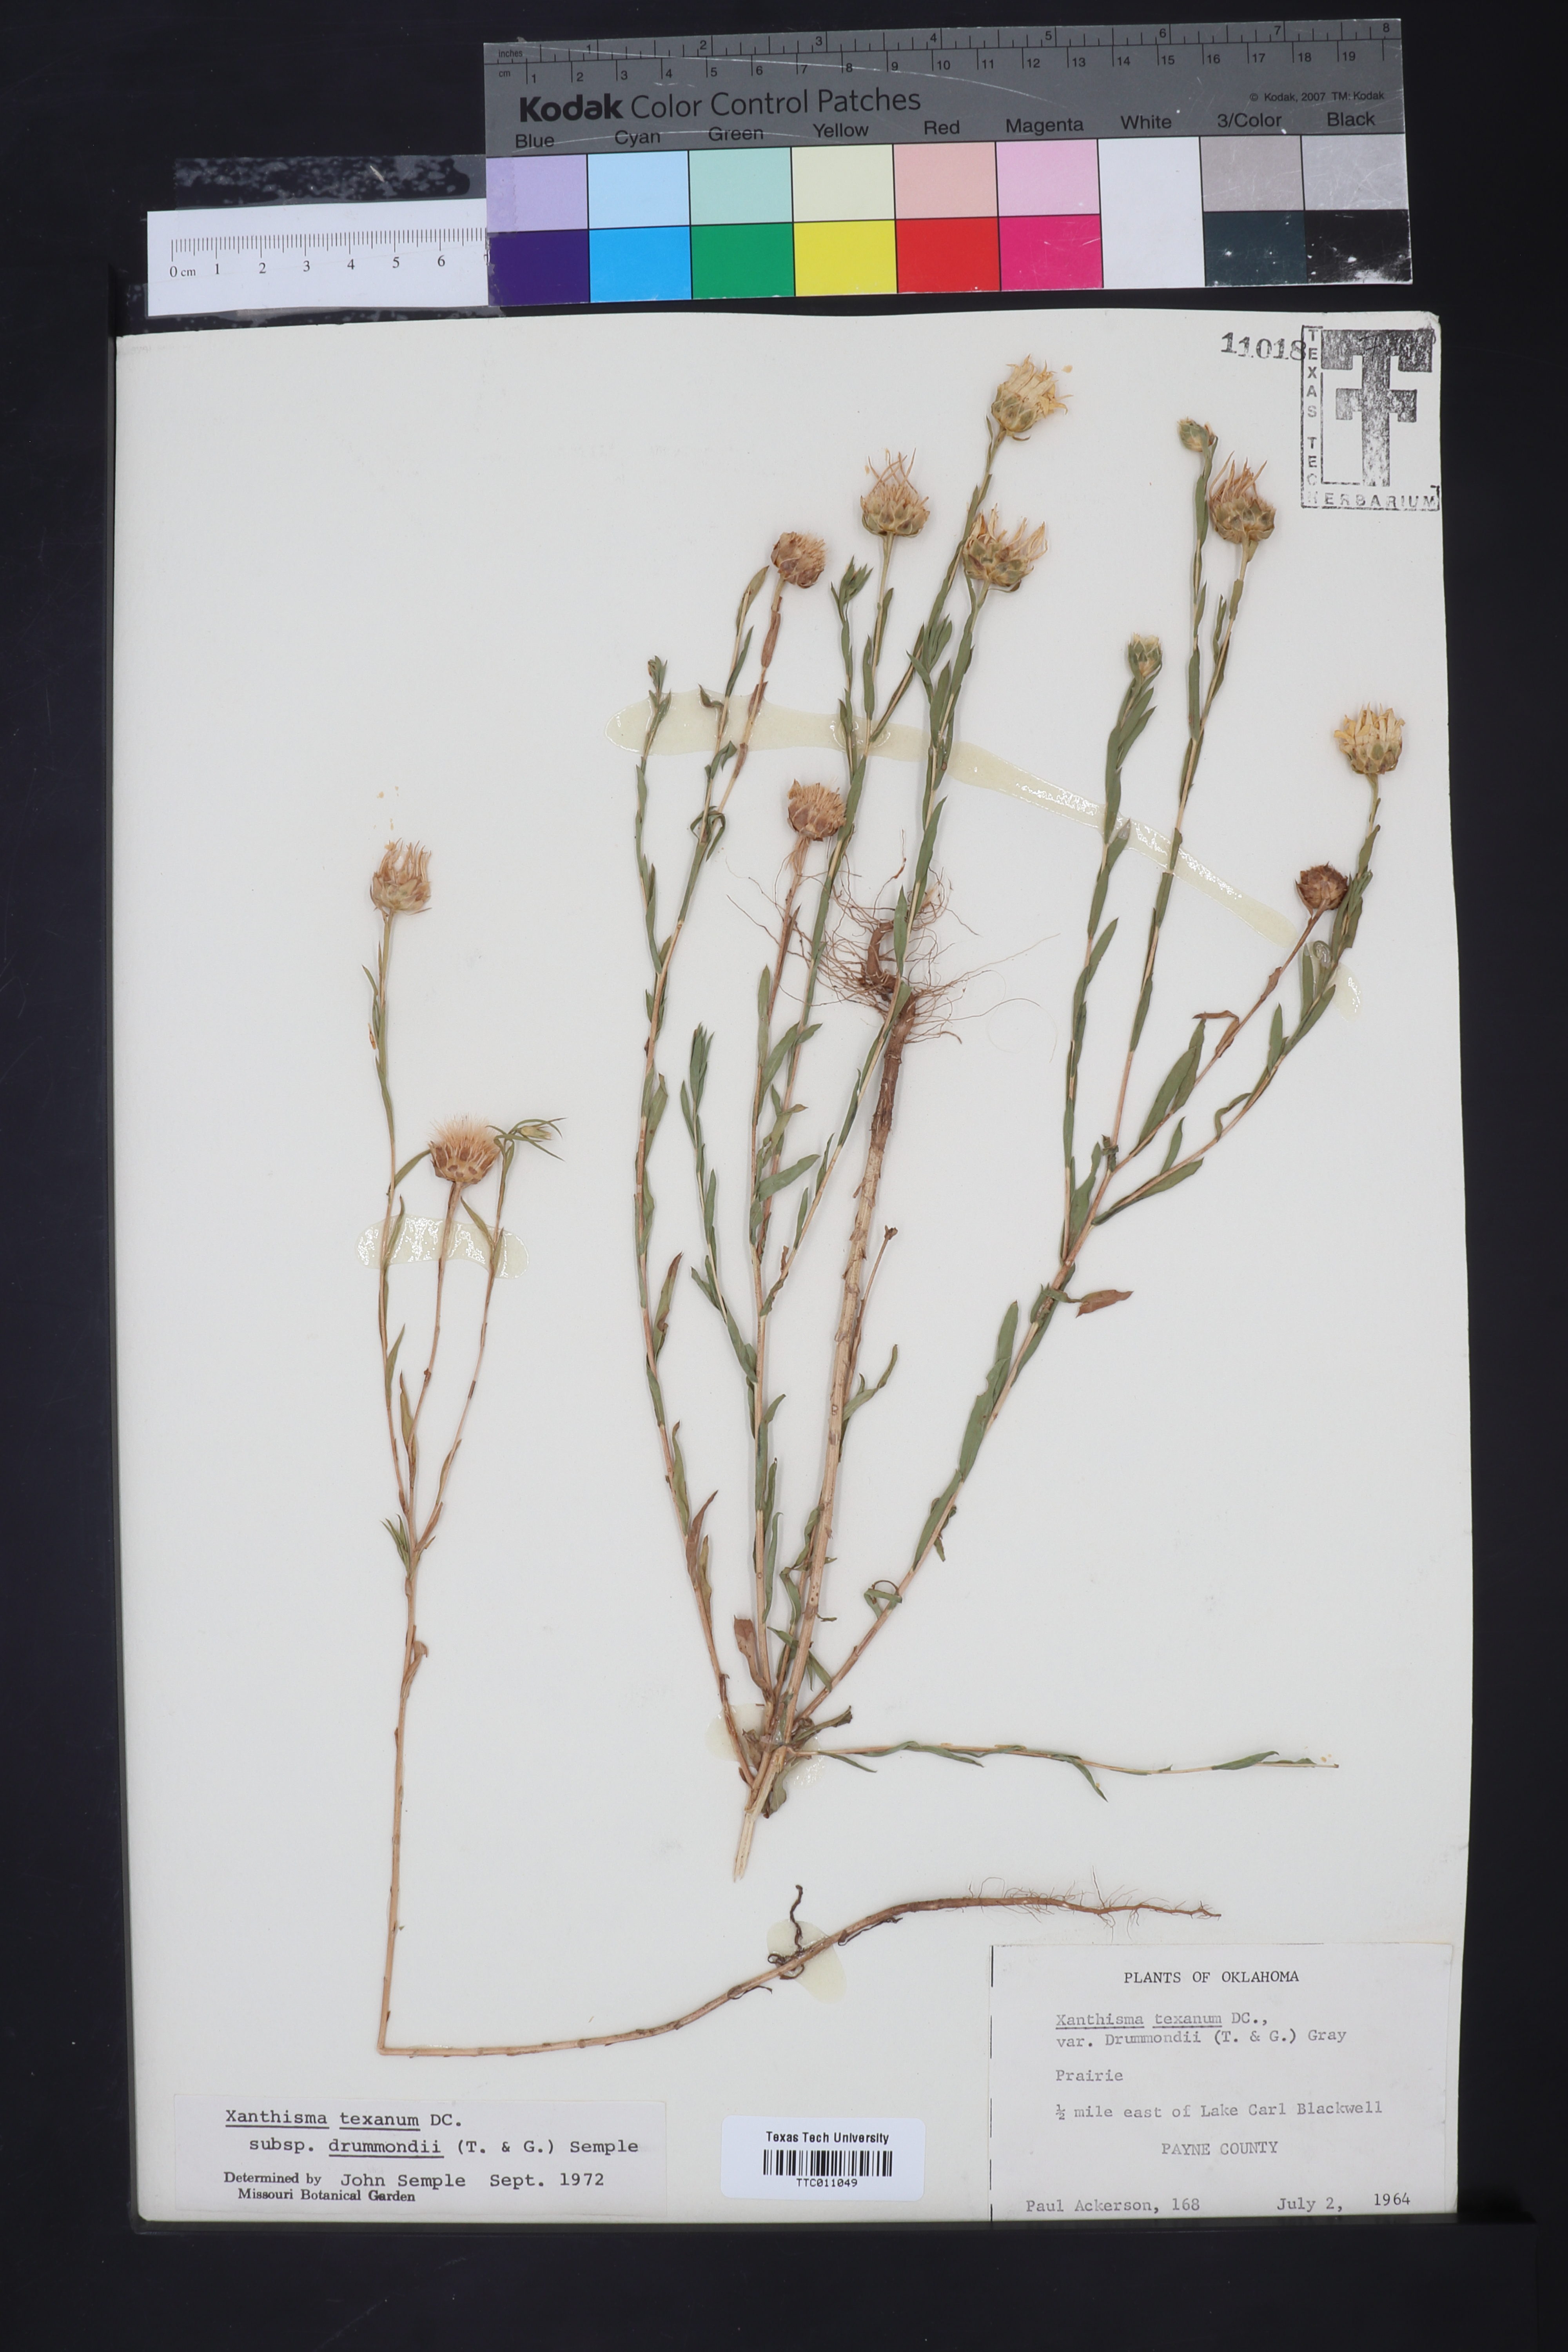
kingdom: Plantae
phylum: Tracheophyta
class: Magnoliopsida
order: Asterales
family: Asteraceae
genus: Xanthisma
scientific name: Xanthisma texanum
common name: Texas sleepy daisy
